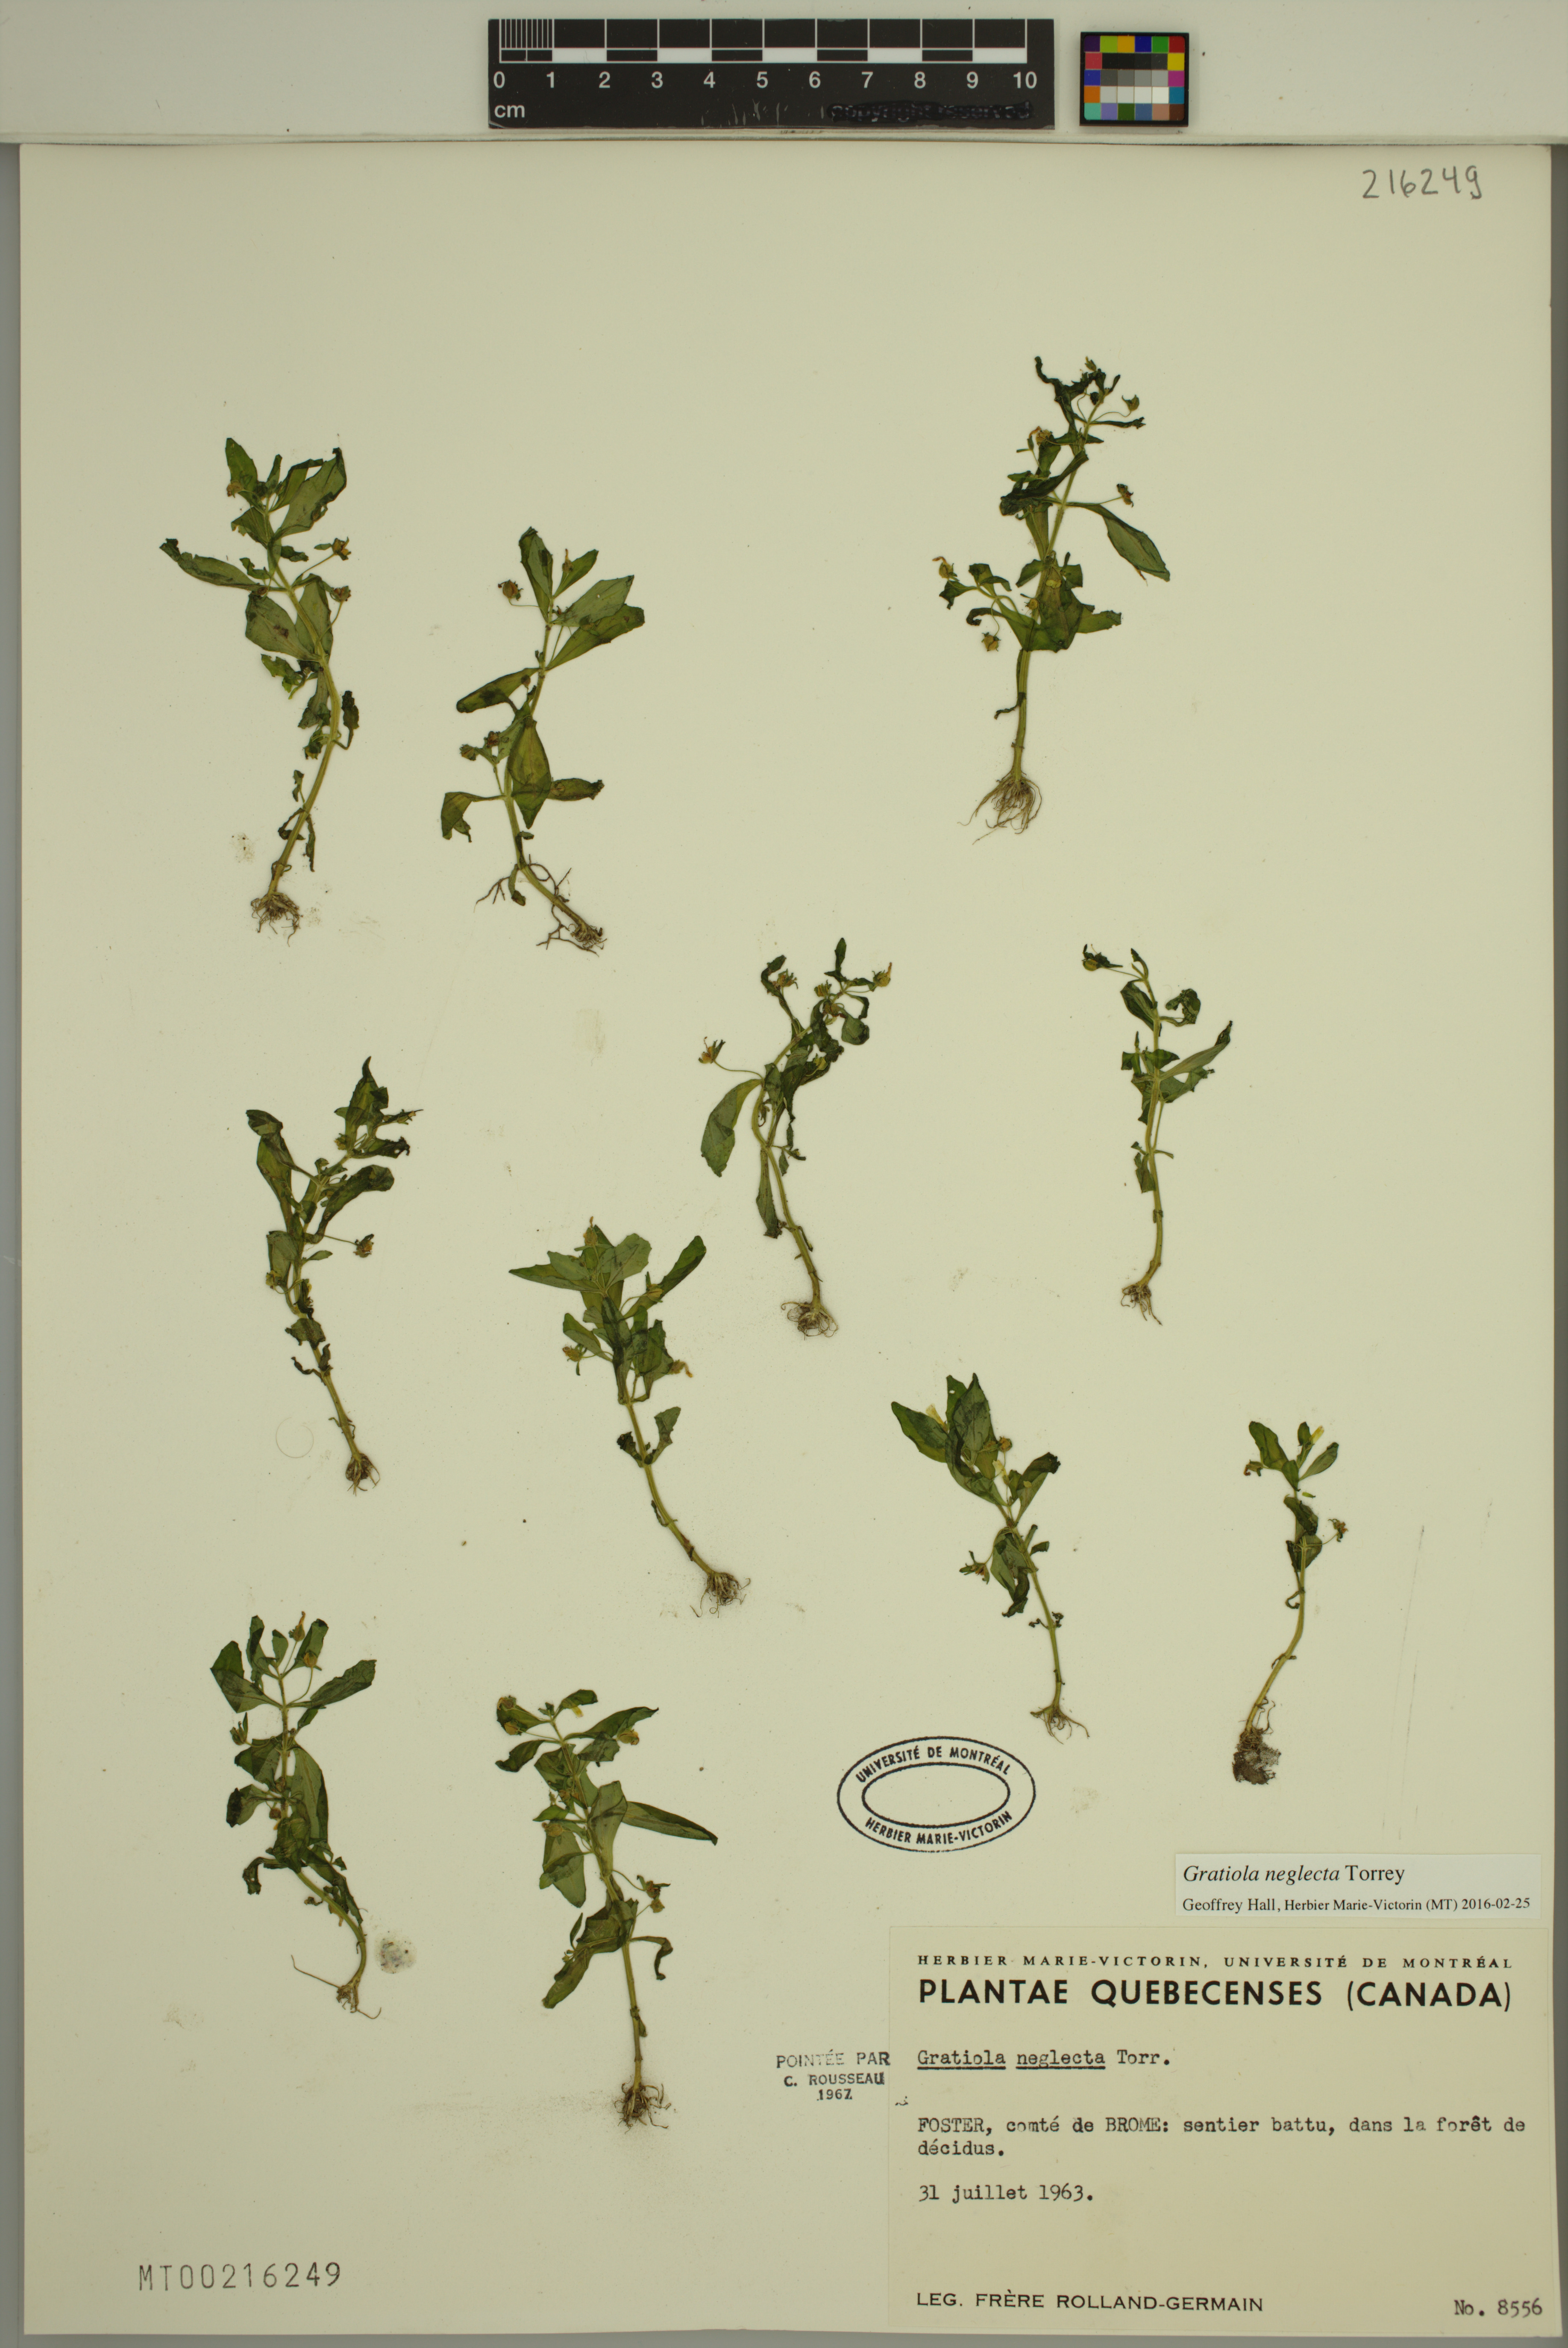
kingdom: Plantae
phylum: Tracheophyta
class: Magnoliopsida
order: Lamiales
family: Plantaginaceae
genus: Gratiola
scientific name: Gratiola neglecta
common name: American hedge-hyssop
